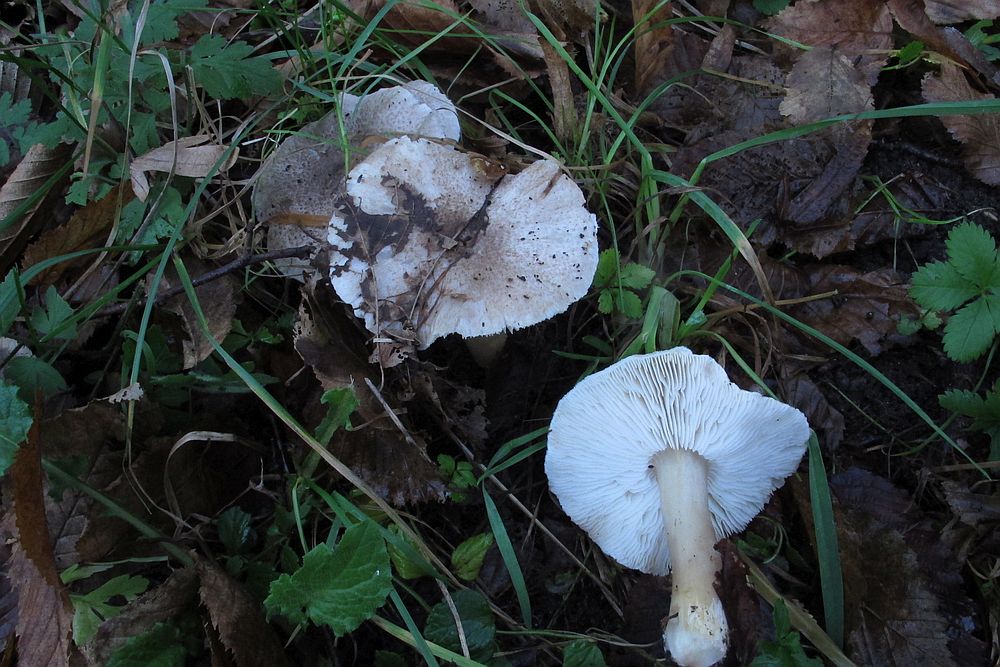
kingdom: Fungi
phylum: Basidiomycota
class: Agaricomycetes
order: Agaricales
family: Tricholomataceae
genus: Tricholoma
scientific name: Tricholoma scalpturatum
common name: gulplettet ridderhat
